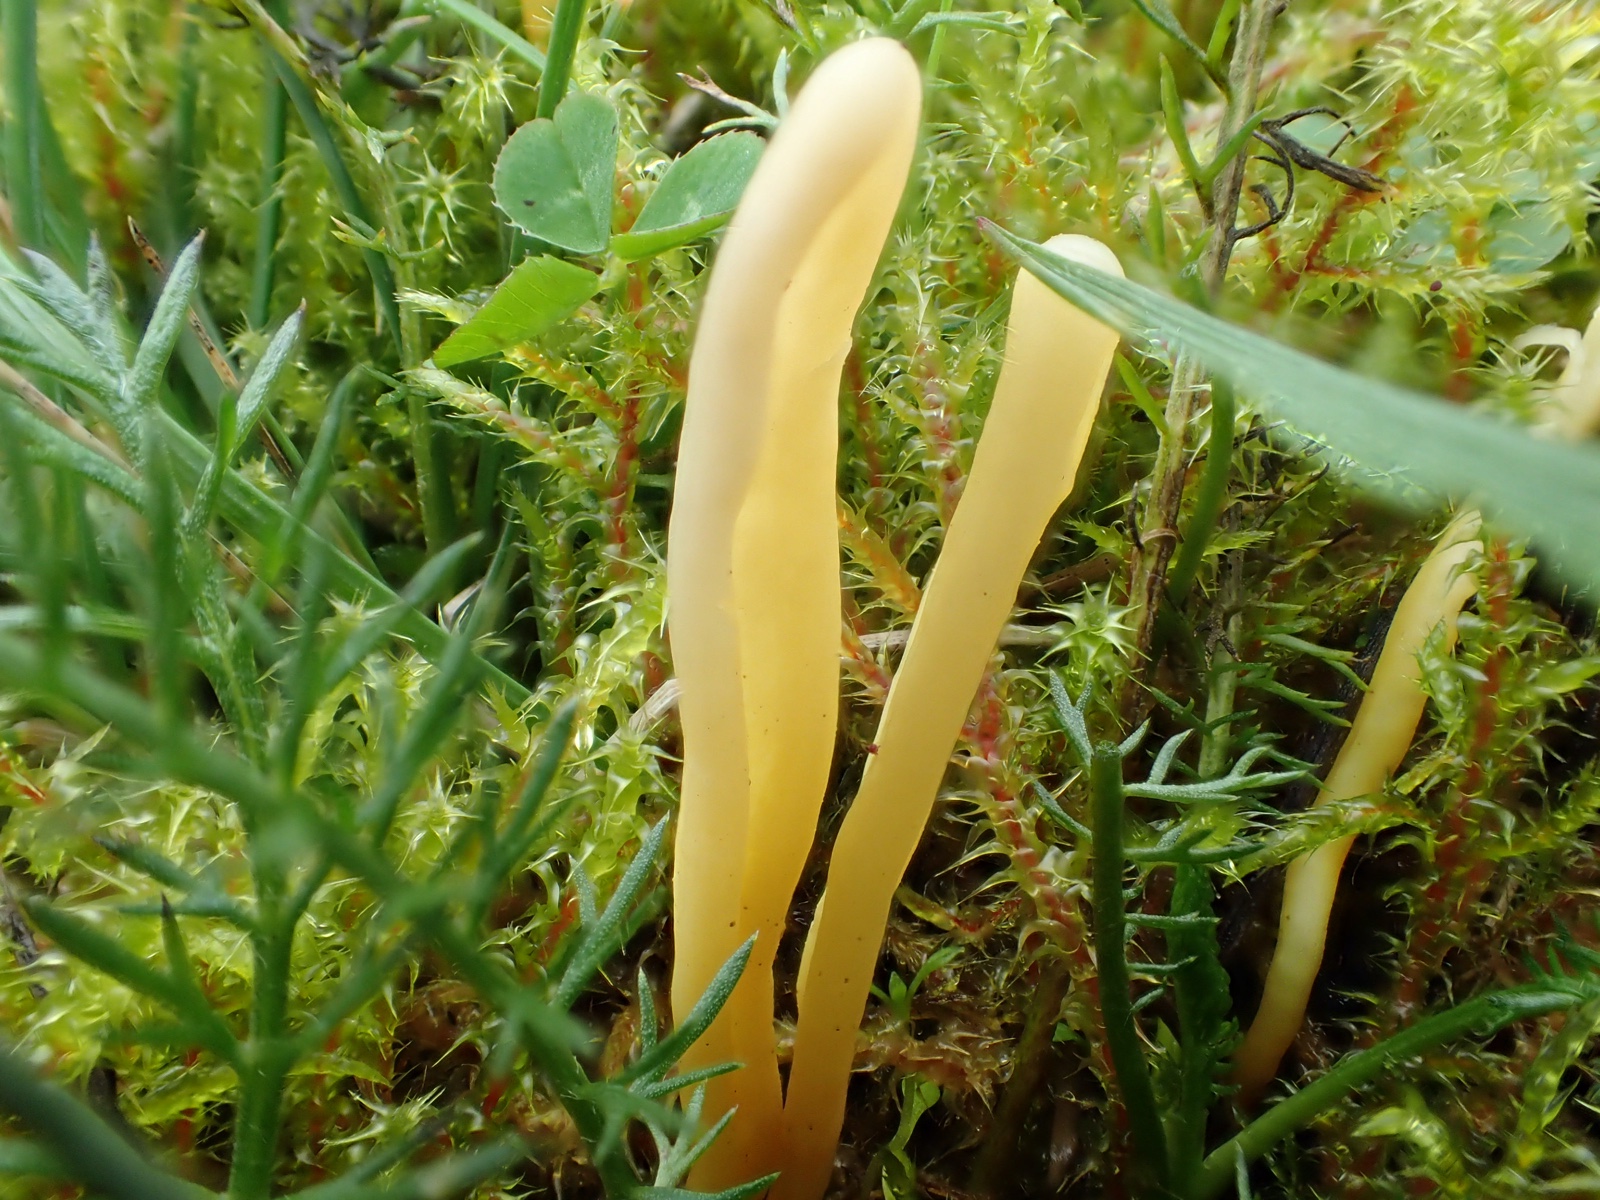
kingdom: Fungi
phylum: Basidiomycota
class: Agaricomycetes
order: Agaricales
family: Clavariaceae
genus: Clavaria
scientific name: Clavaria
